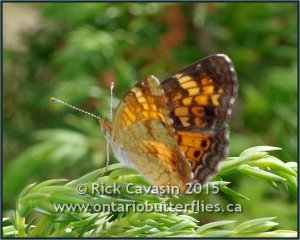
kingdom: Animalia
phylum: Arthropoda
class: Insecta
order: Lepidoptera
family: Nymphalidae
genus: Phyciodes
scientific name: Phyciodes tharos
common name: Northern Crescent
